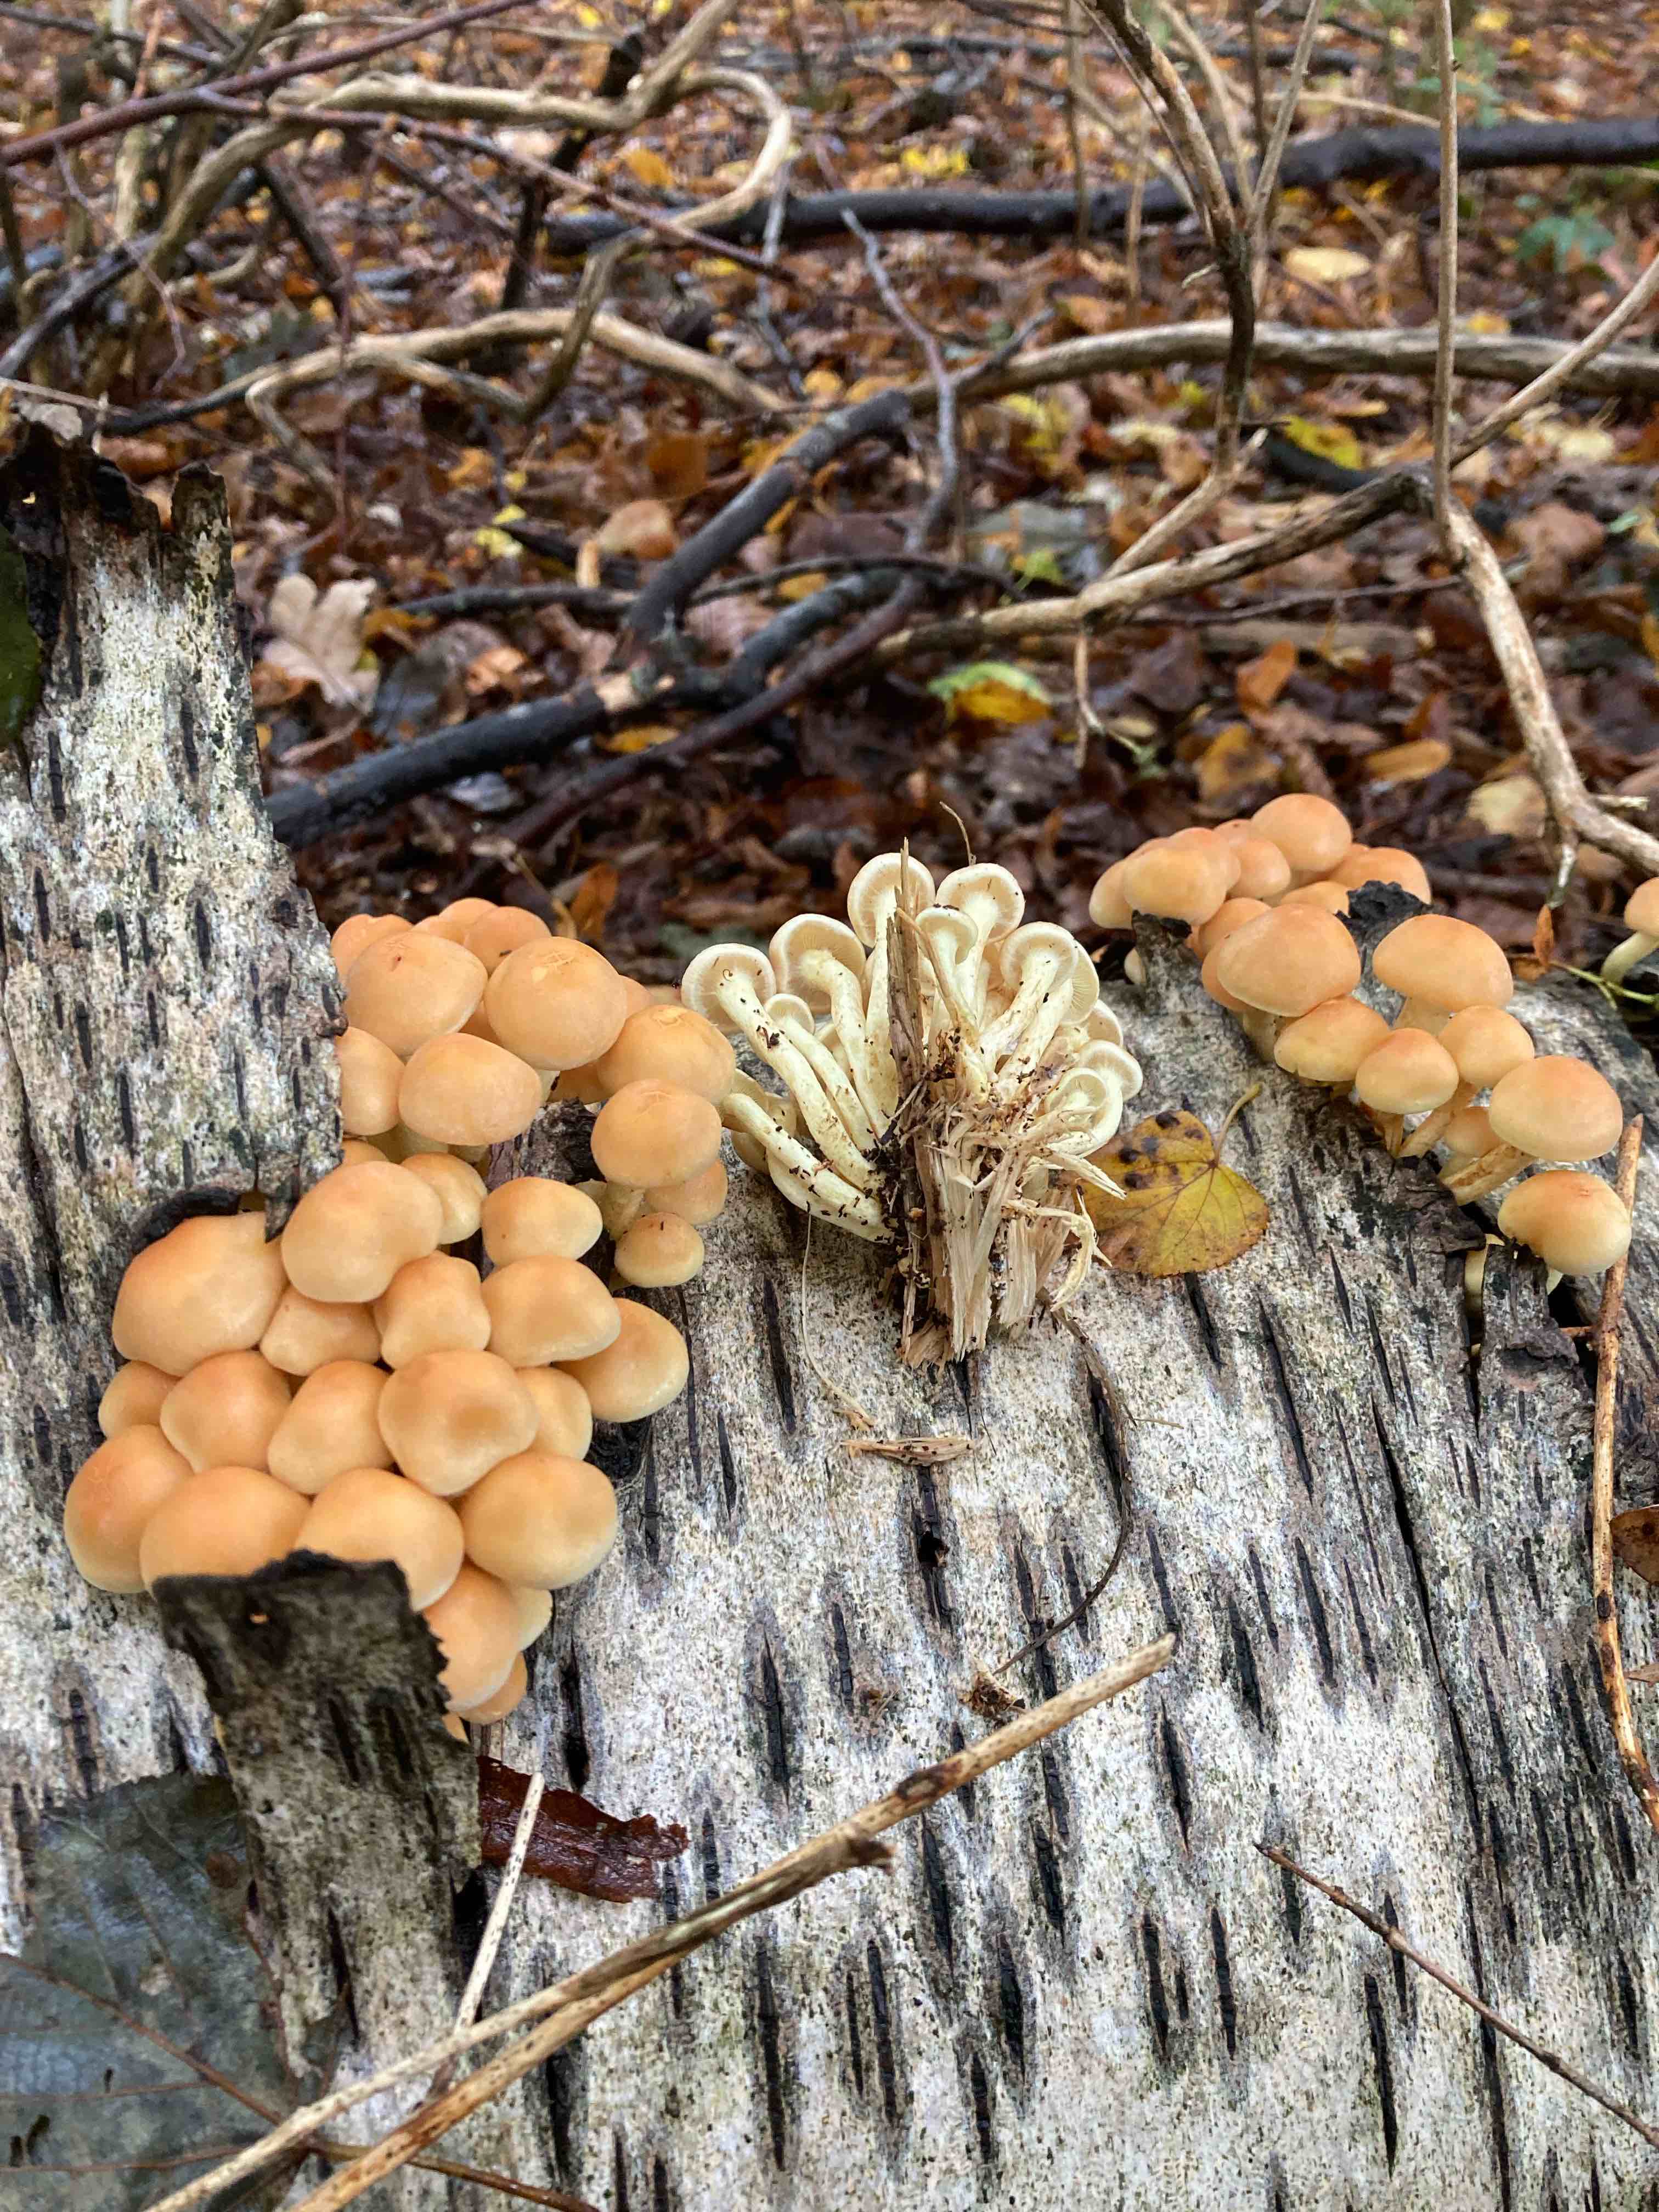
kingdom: Fungi
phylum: Basidiomycota
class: Agaricomycetes
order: Agaricales
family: Strophariaceae
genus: Hypholoma
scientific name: Hypholoma fasciculare
